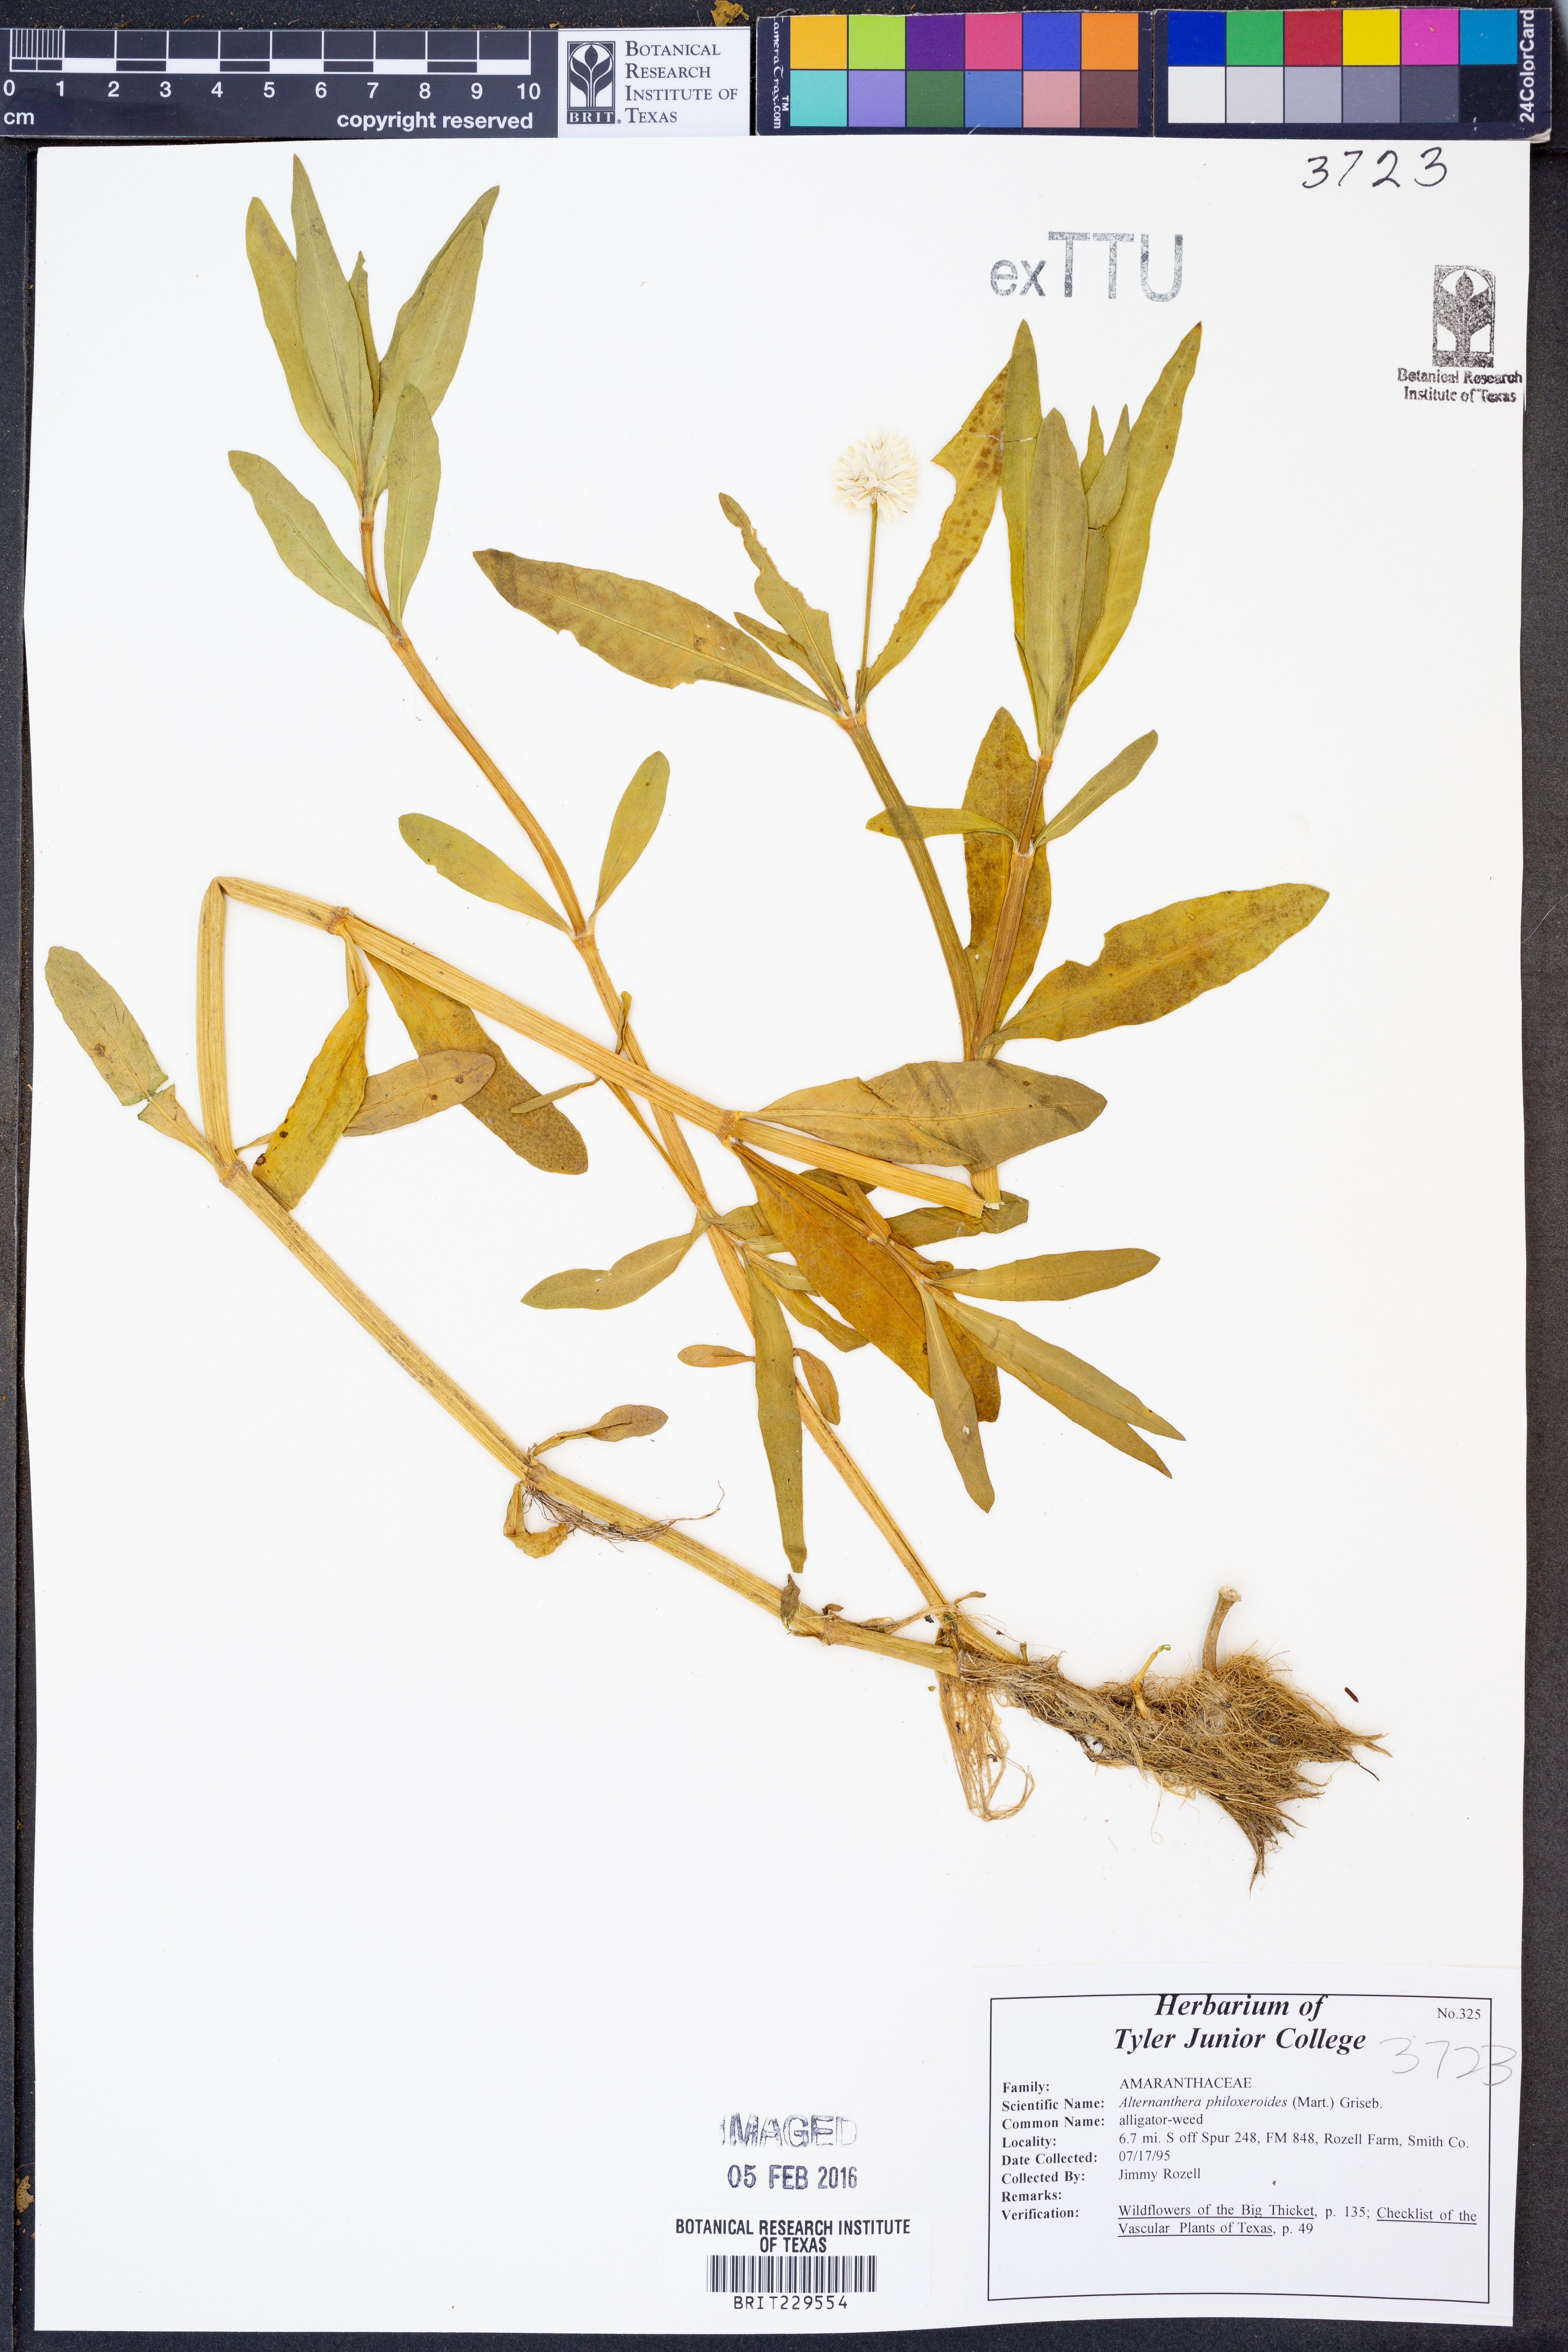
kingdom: Plantae
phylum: Tracheophyta
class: Magnoliopsida
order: Caryophyllales
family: Amaranthaceae
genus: Alternanthera
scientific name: Alternanthera philoxeroides
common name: Alligatorweed
